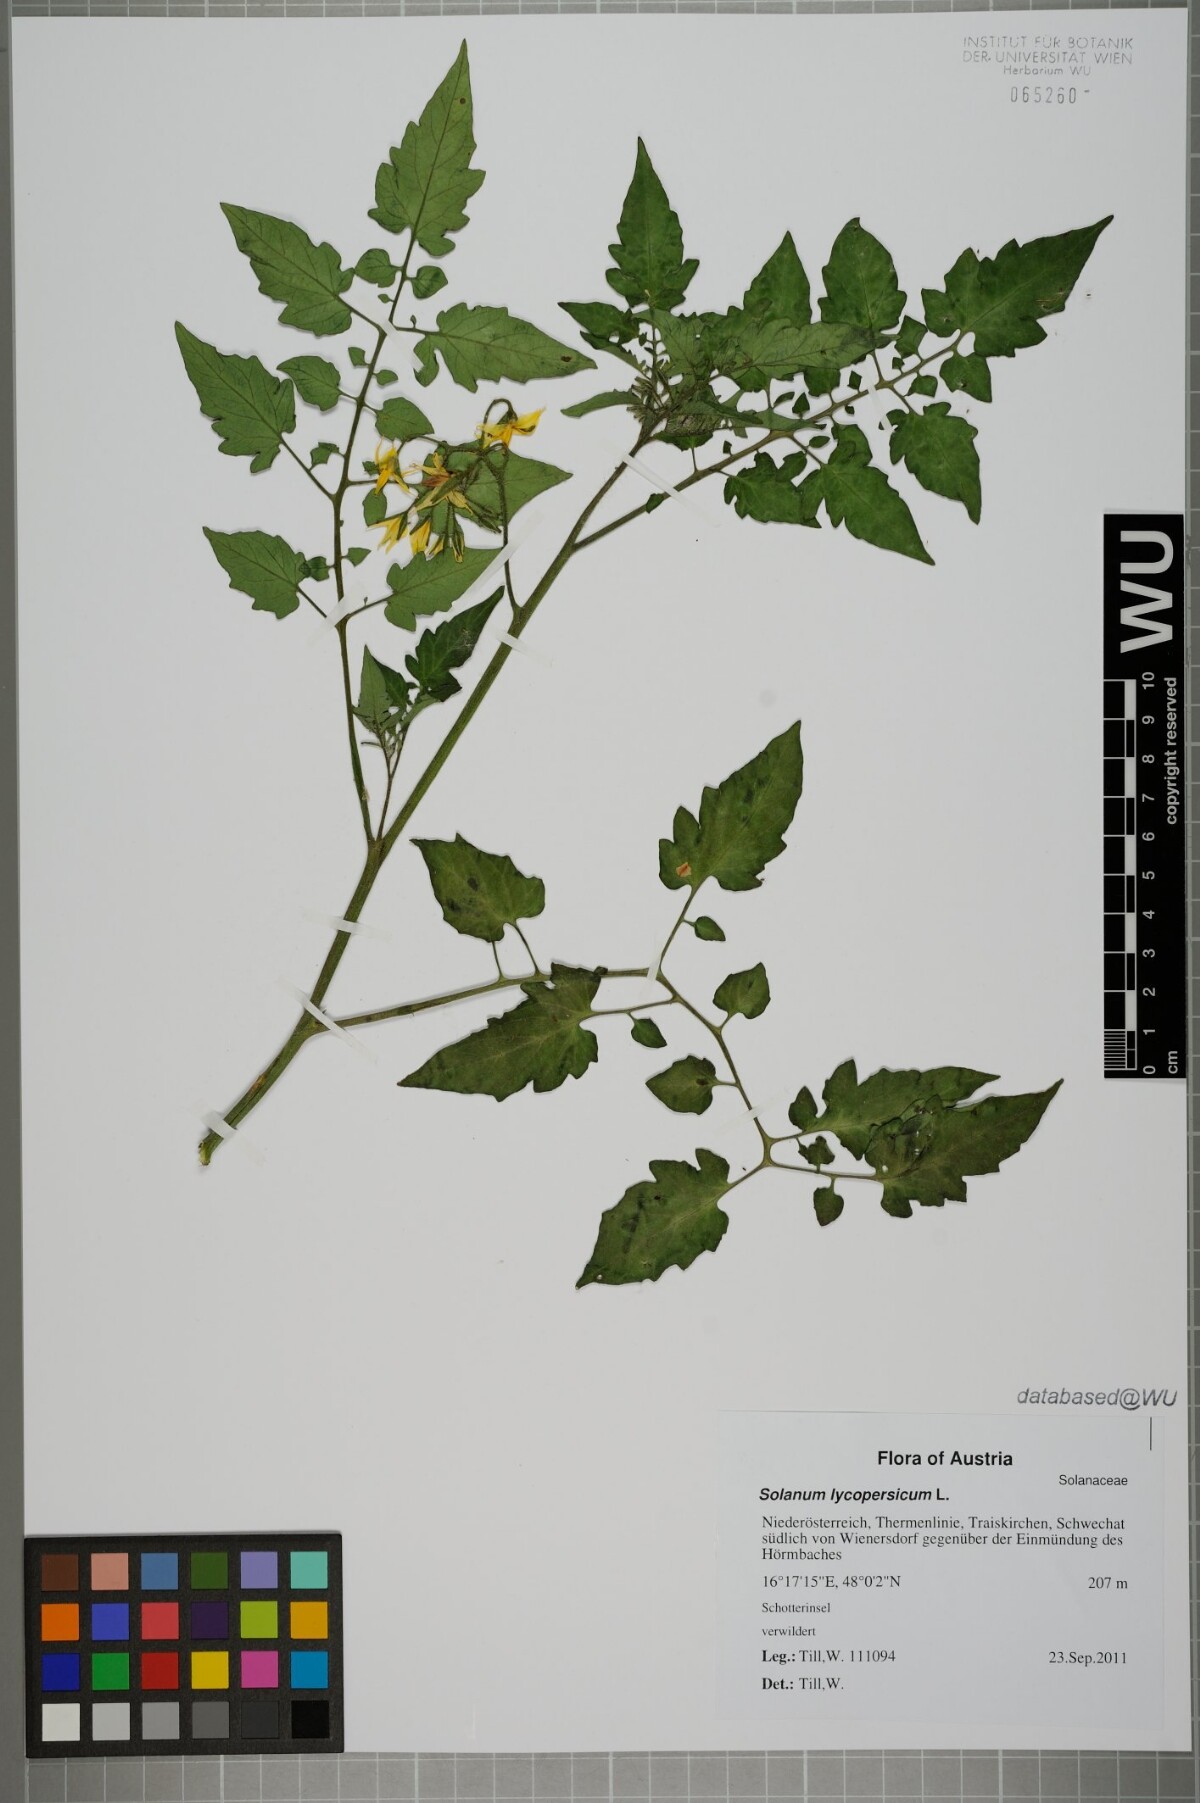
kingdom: Plantae
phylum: Tracheophyta
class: Magnoliopsida
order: Solanales
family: Solanaceae
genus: Solanum
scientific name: Solanum lycopersicum
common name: Garden tomato
